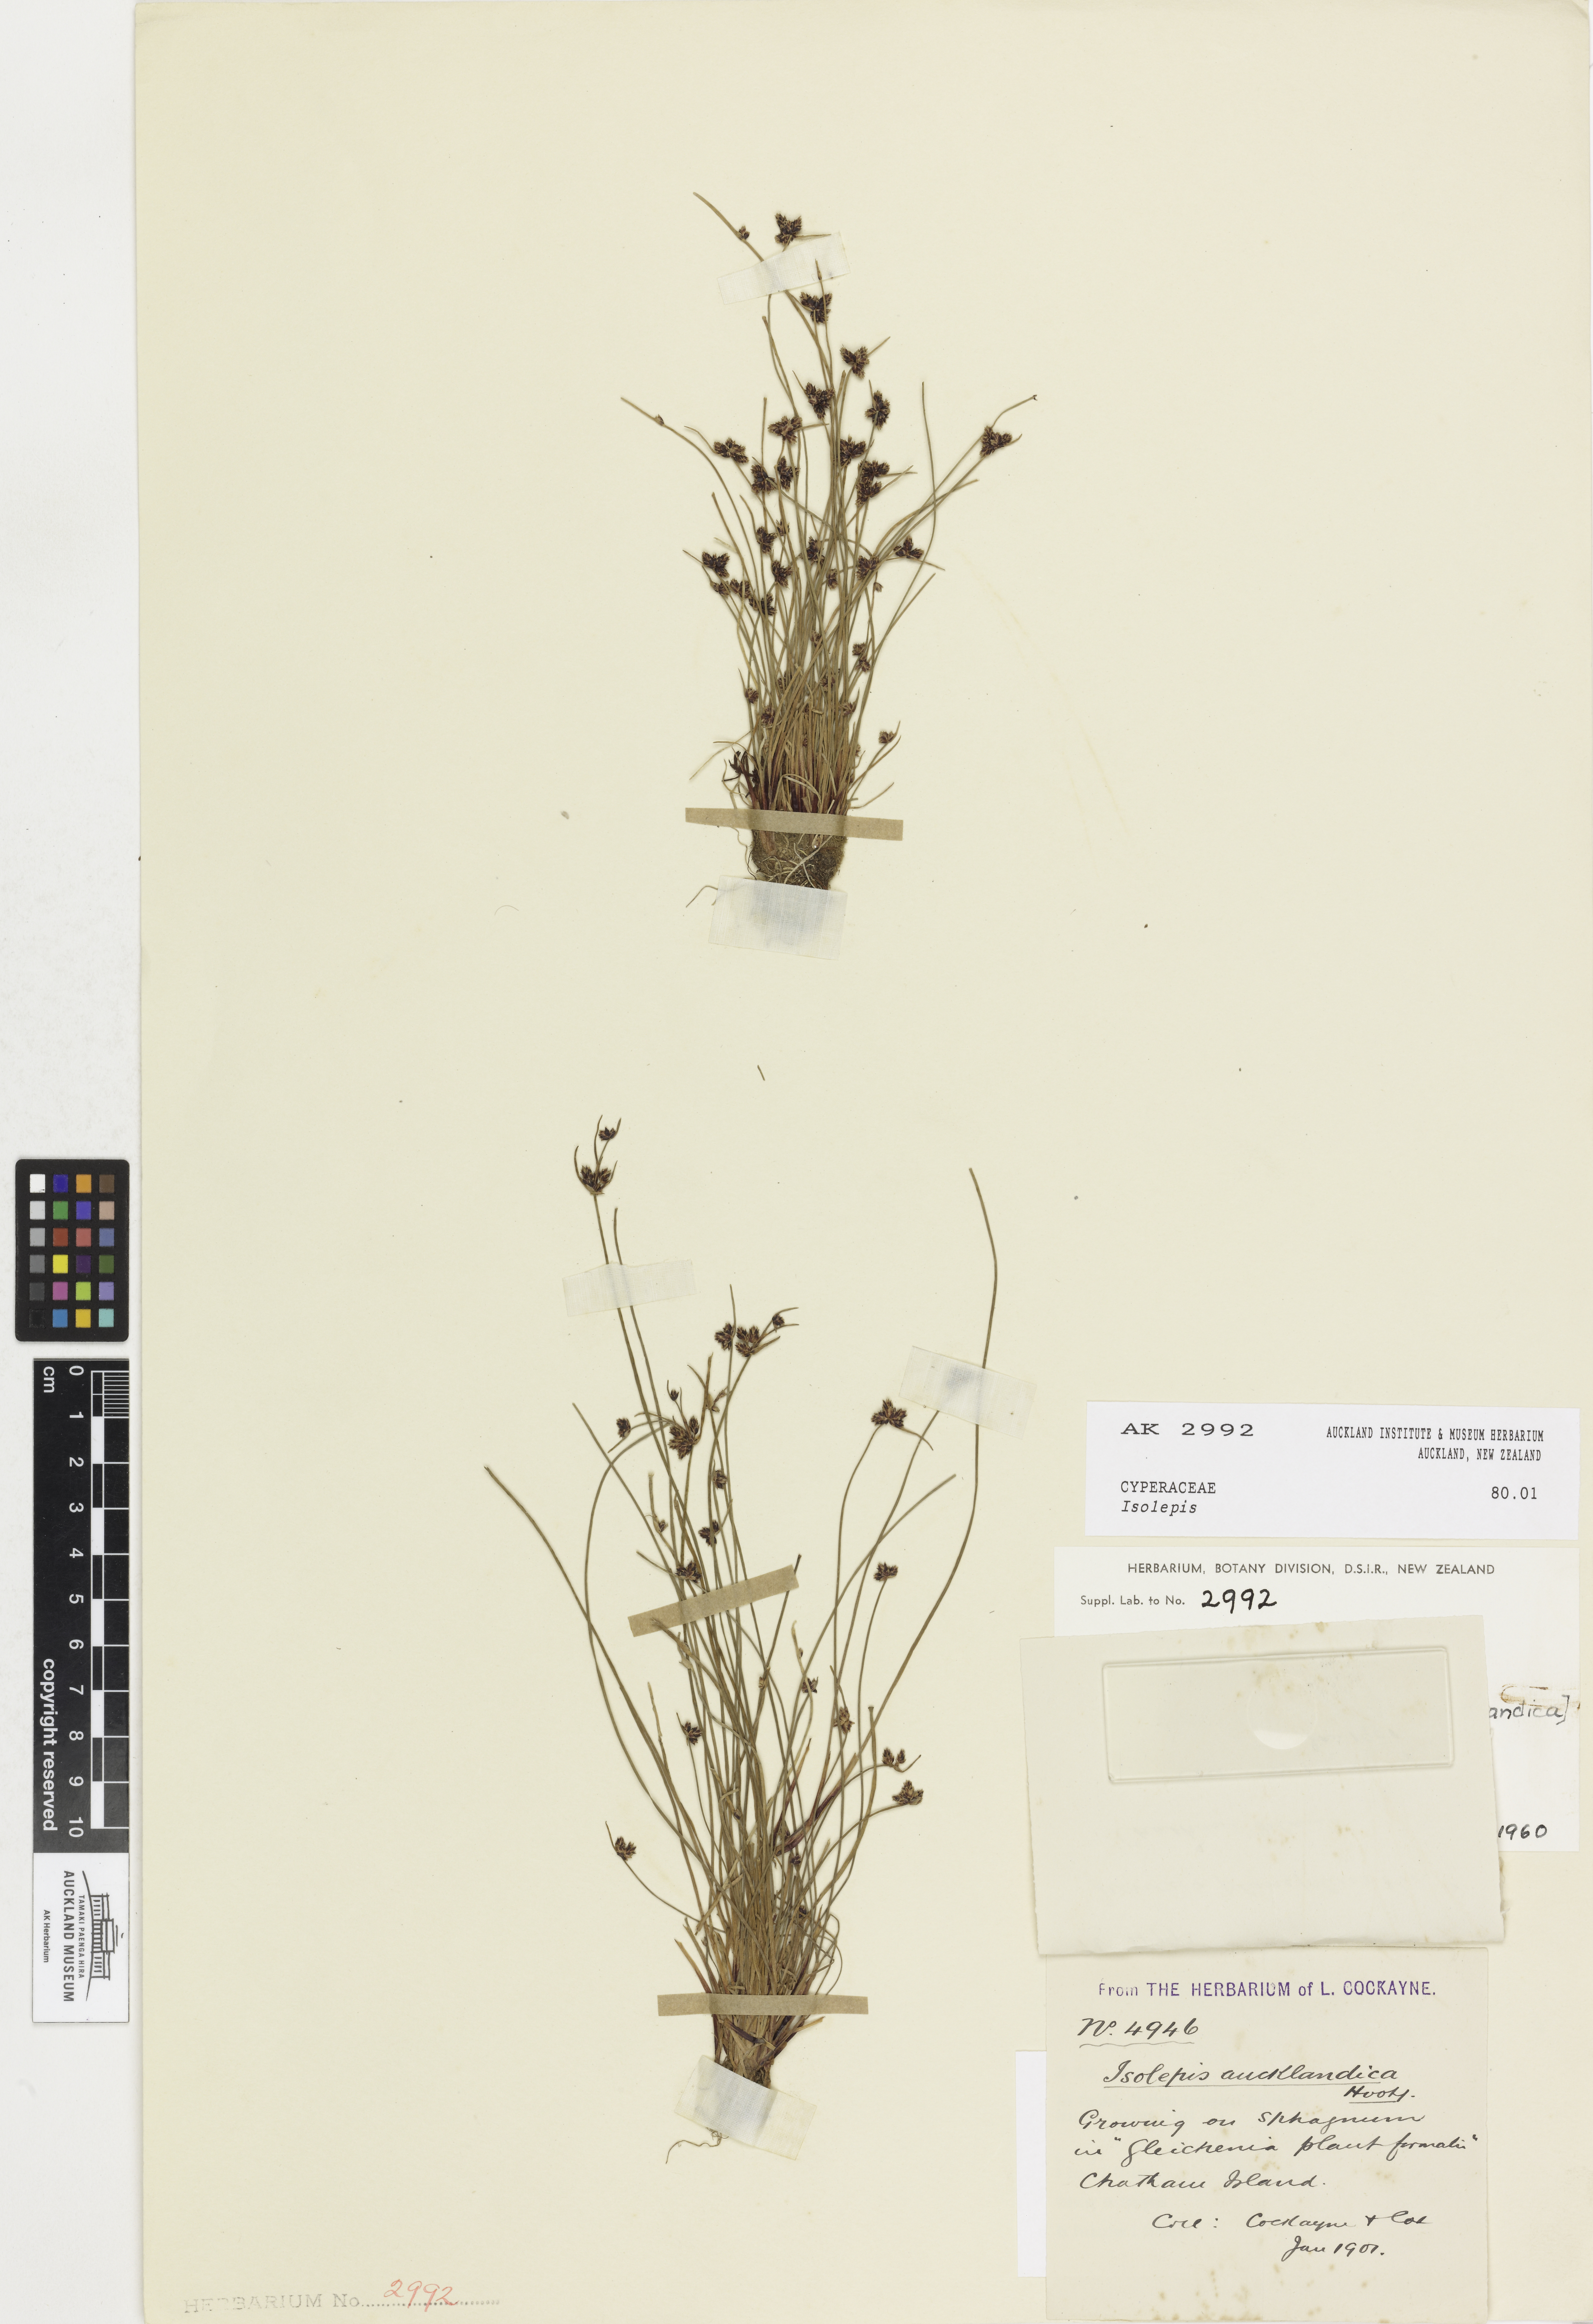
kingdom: Plantae
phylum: Tracheophyta
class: Liliopsida
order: Poales
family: Cyperaceae
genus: Isolepis
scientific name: Isolepis
